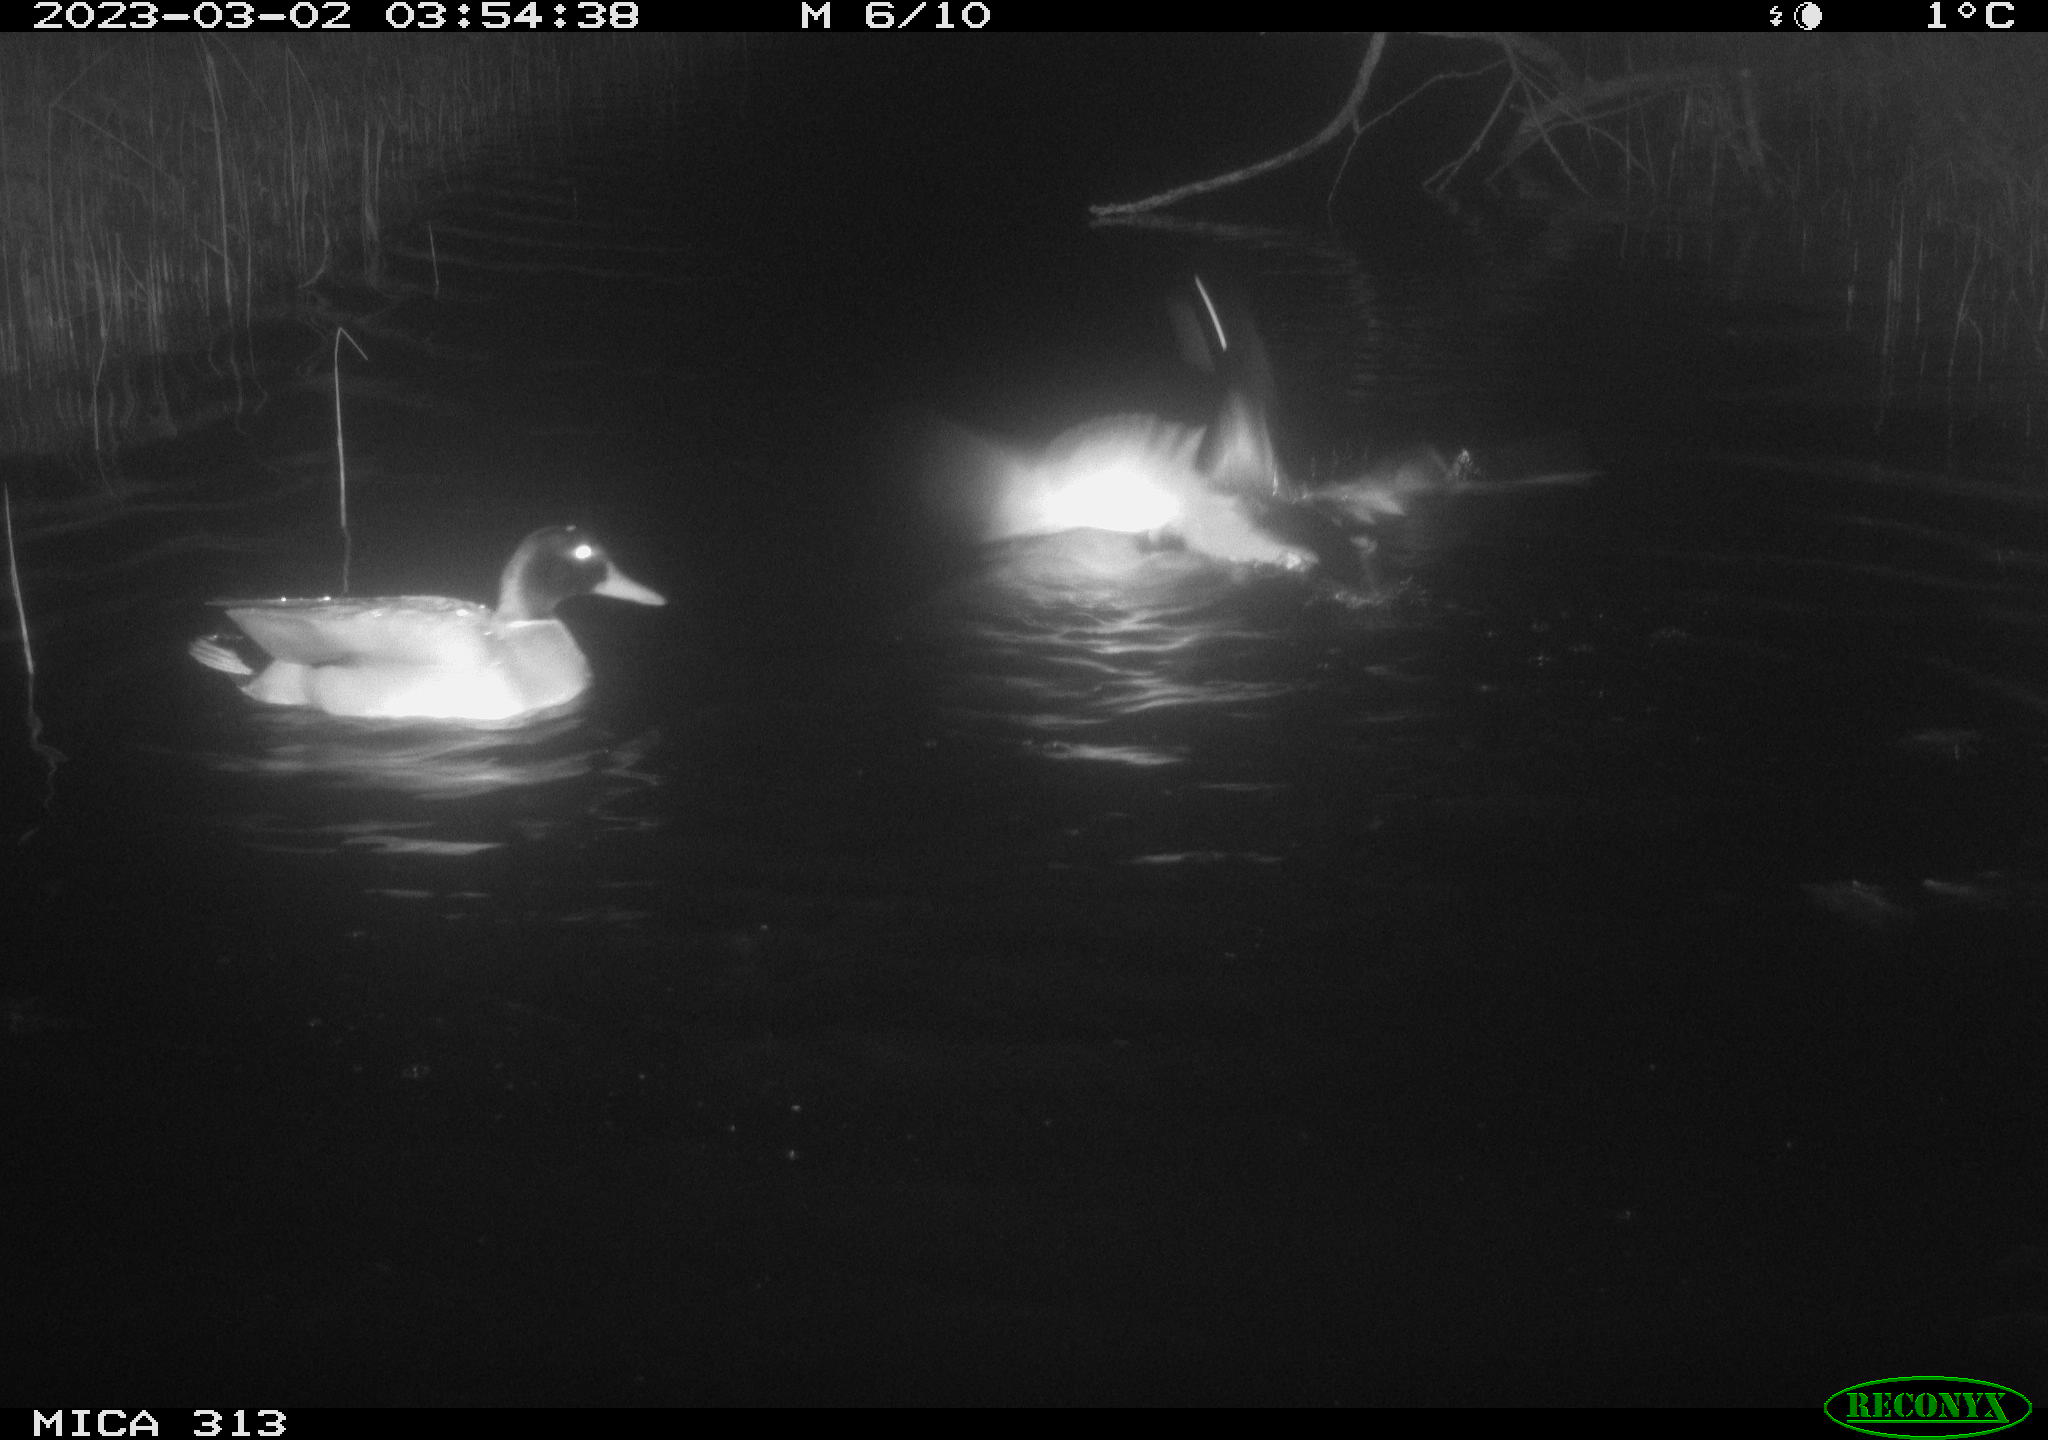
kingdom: Animalia
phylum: Chordata
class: Aves
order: Anseriformes
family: Anatidae
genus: Anas
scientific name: Anas
